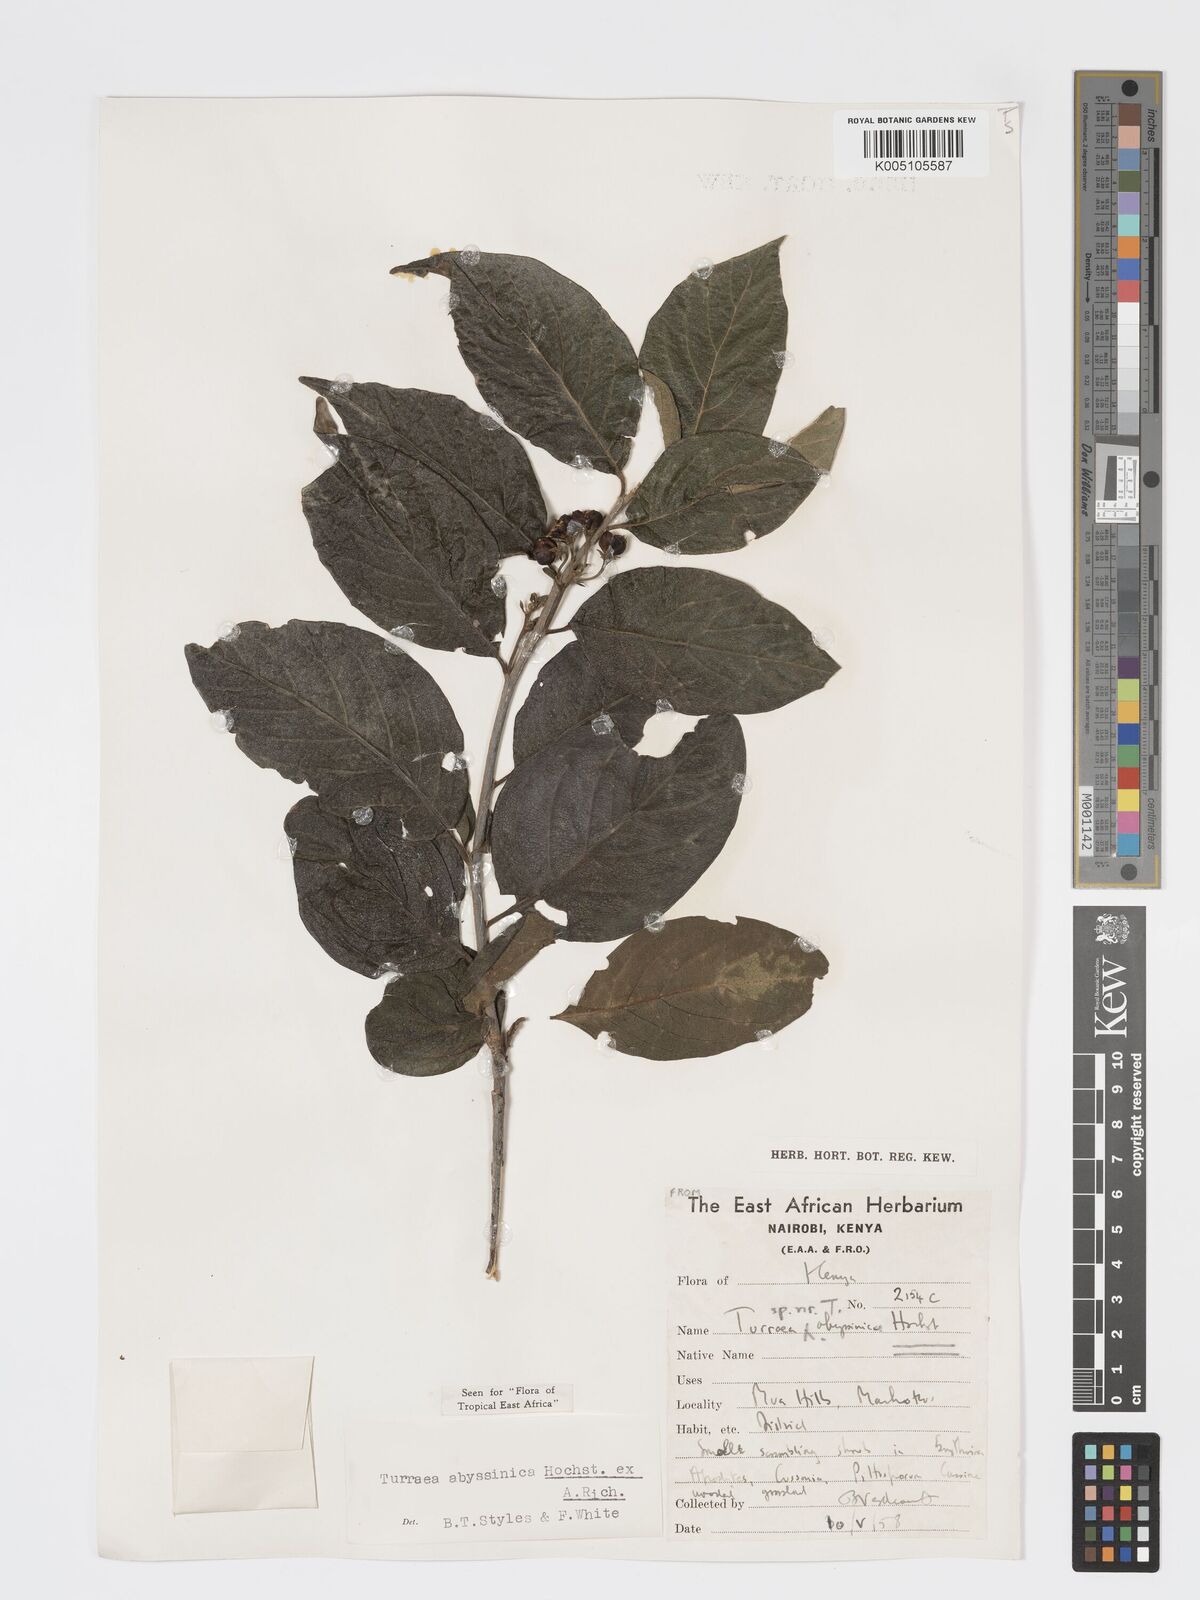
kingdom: Plantae
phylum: Tracheophyta
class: Magnoliopsida
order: Sapindales
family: Meliaceae
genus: Turraea
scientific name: Turraea abyssinica
